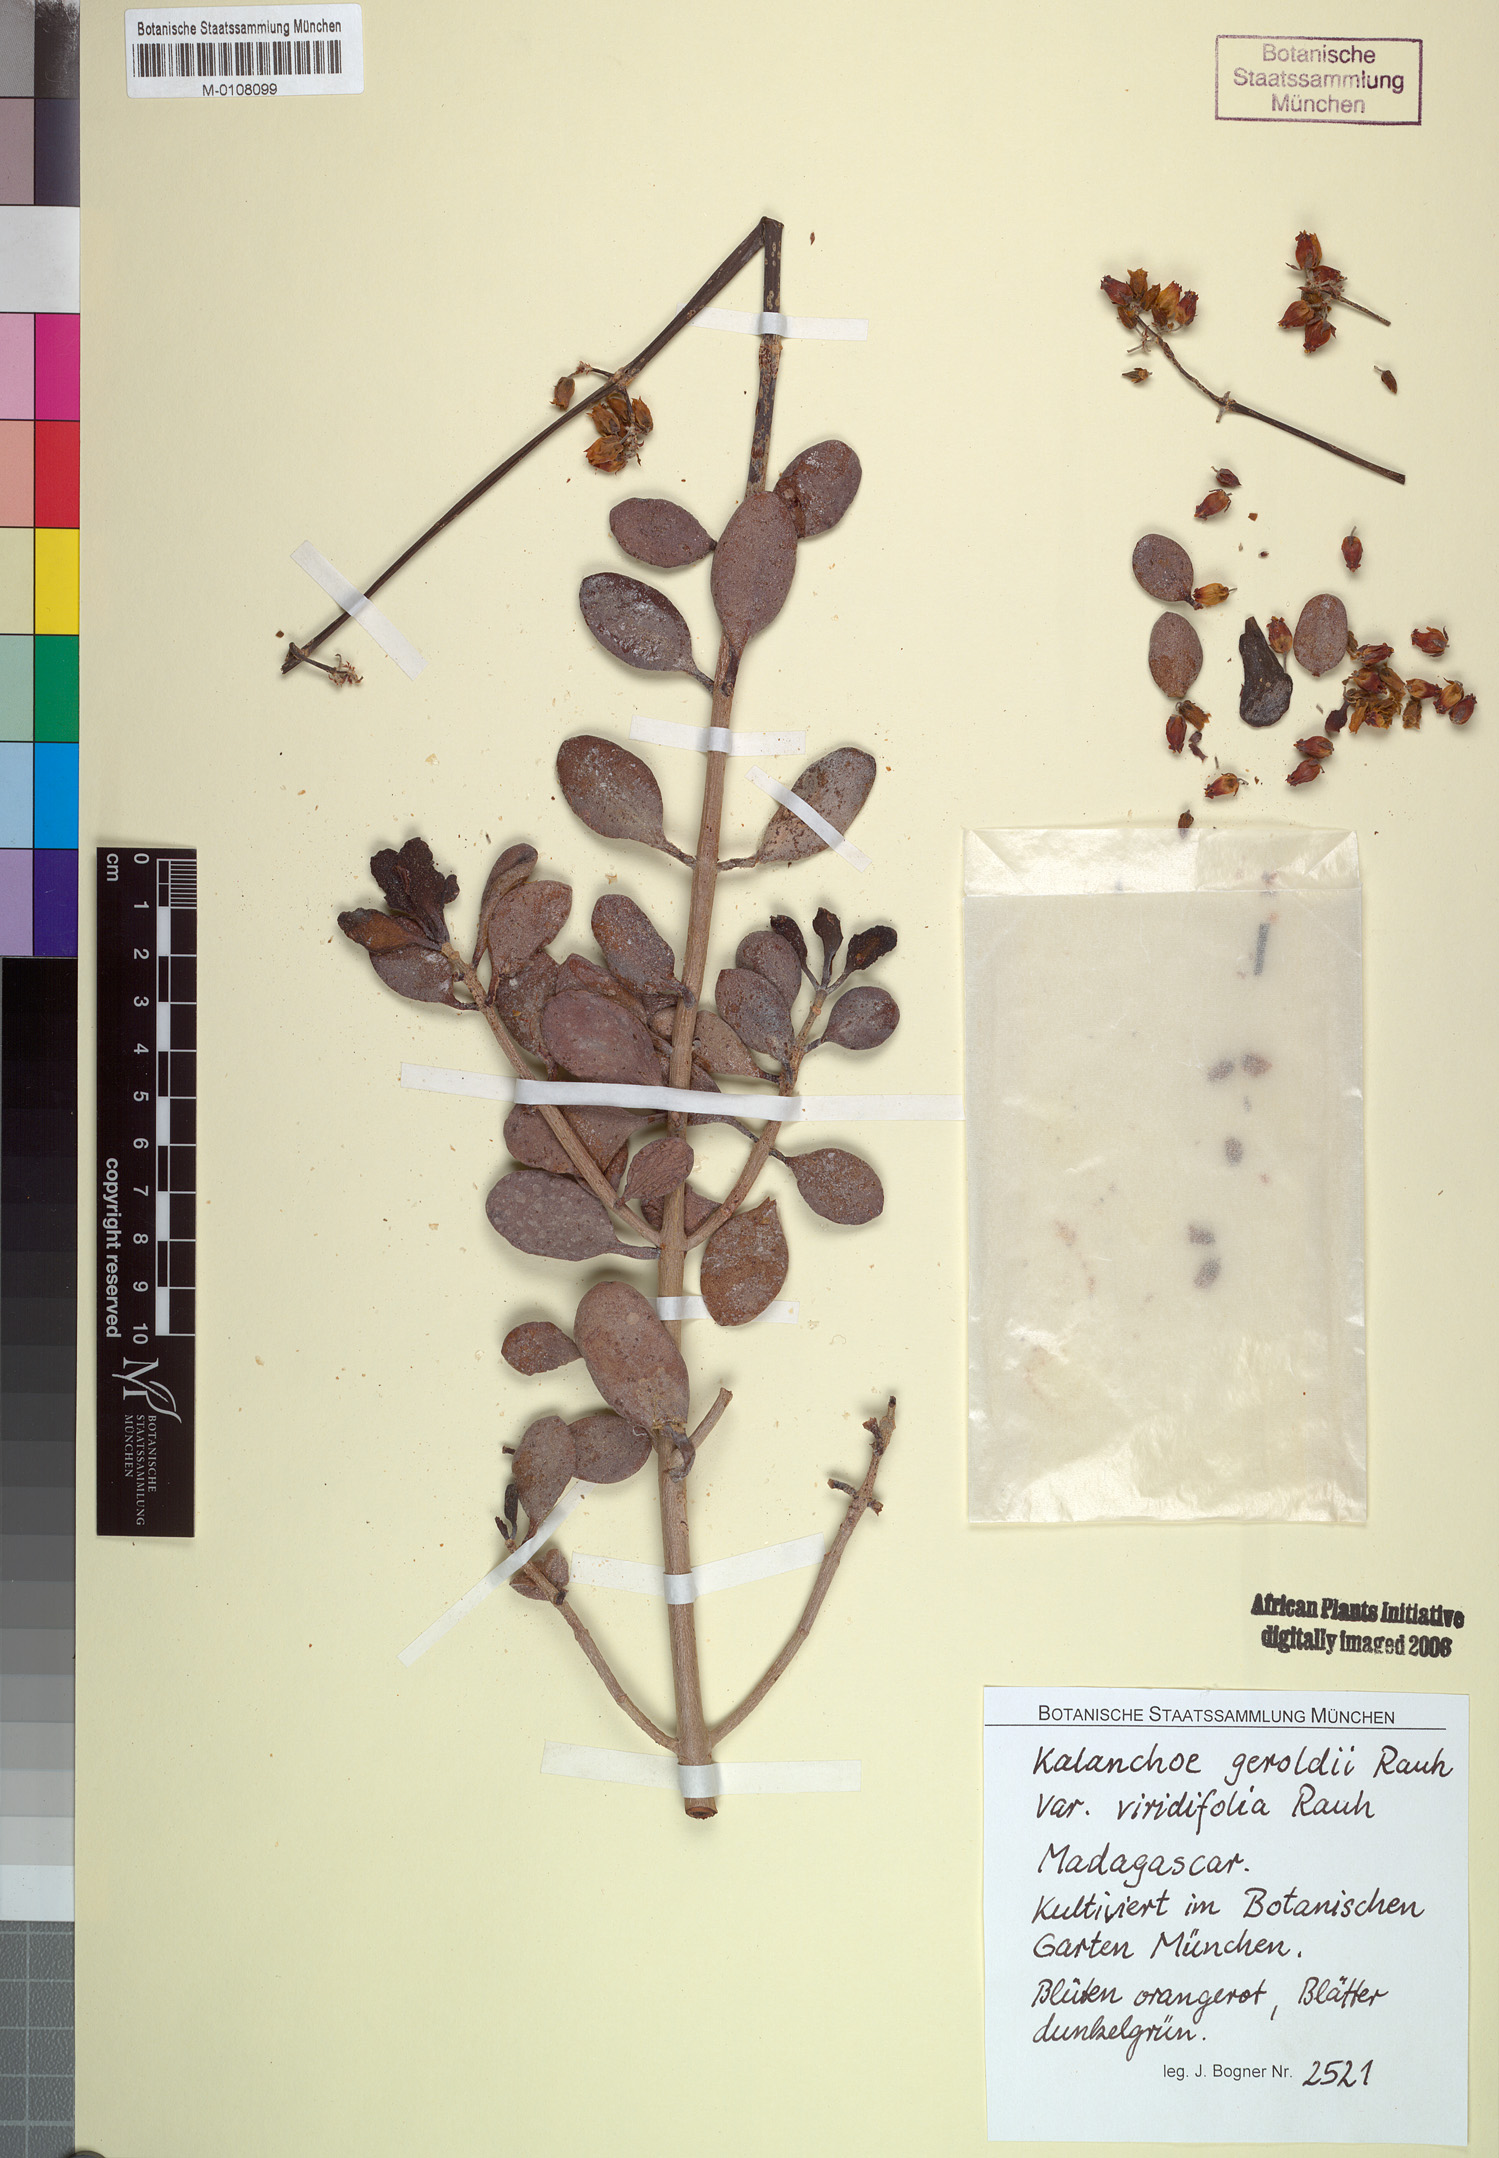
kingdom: Plantae
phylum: Tracheophyta
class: Magnoliopsida
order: Saxifragales
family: Crassulaceae
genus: Kalanchoe
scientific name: Kalanchoe geroldii
